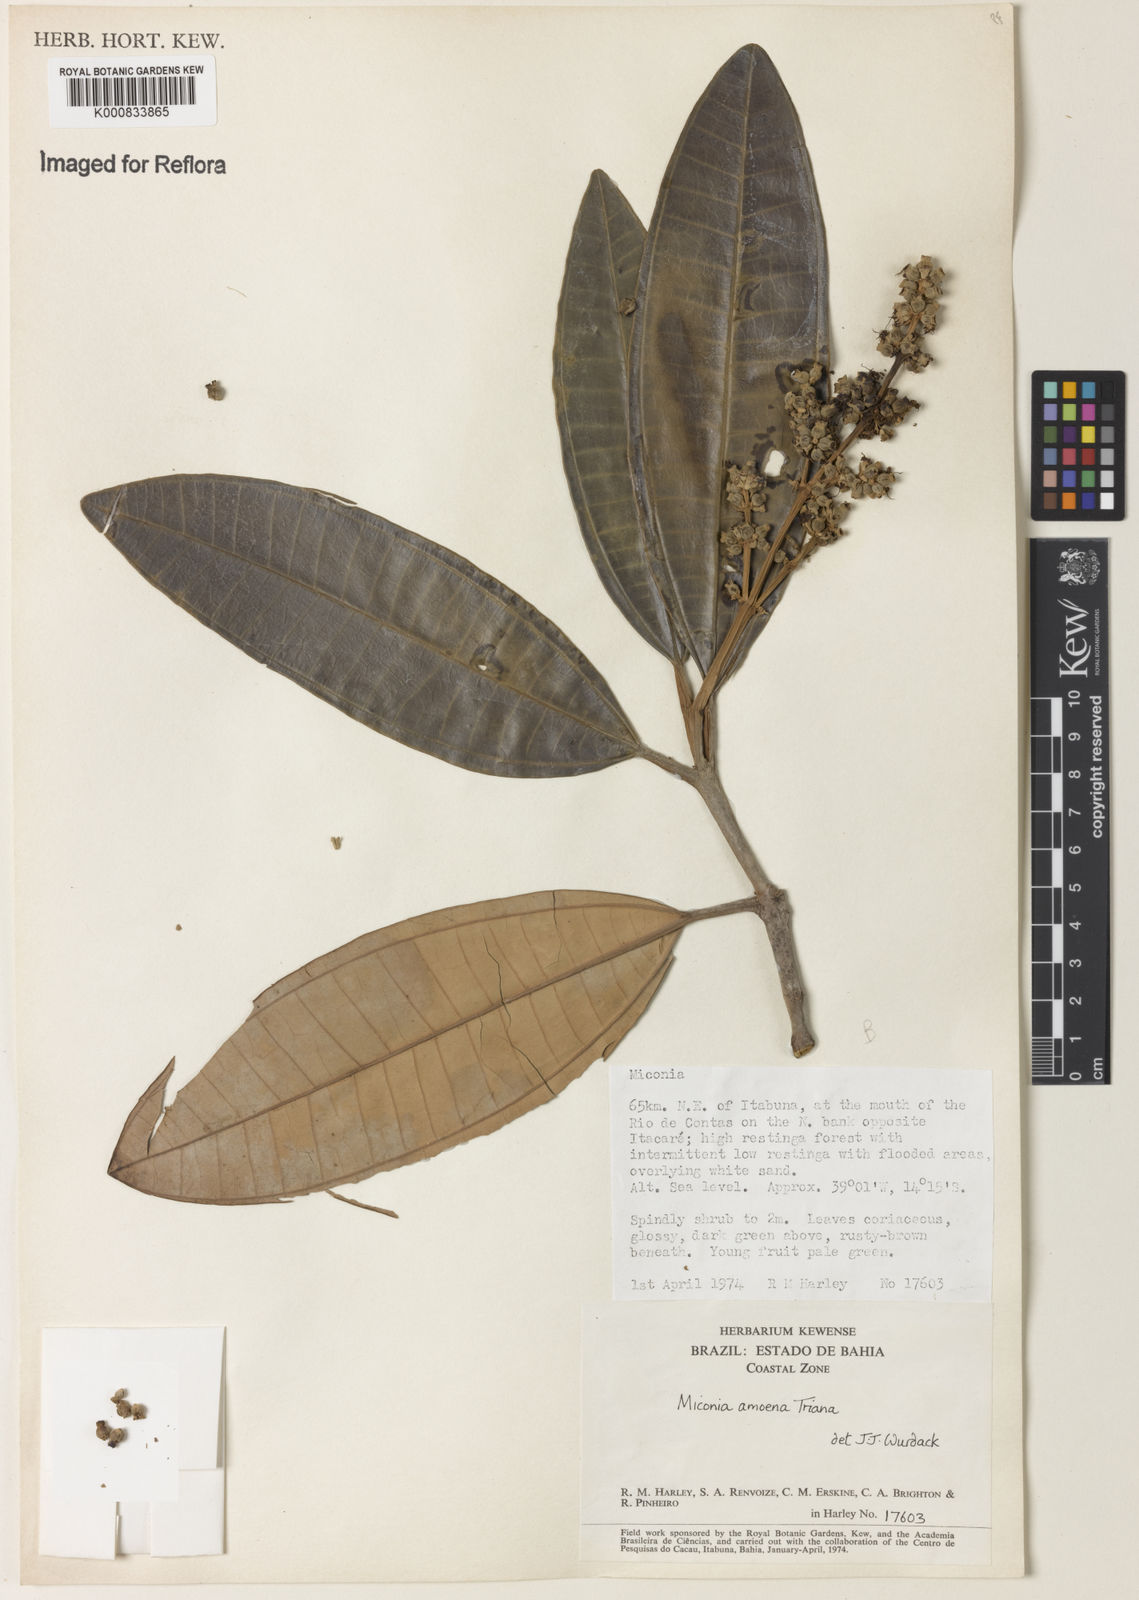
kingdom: Plantae
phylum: Tracheophyta
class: Magnoliopsida
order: Myrtales
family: Melastomataceae
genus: Miconia
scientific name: Miconia amoena
